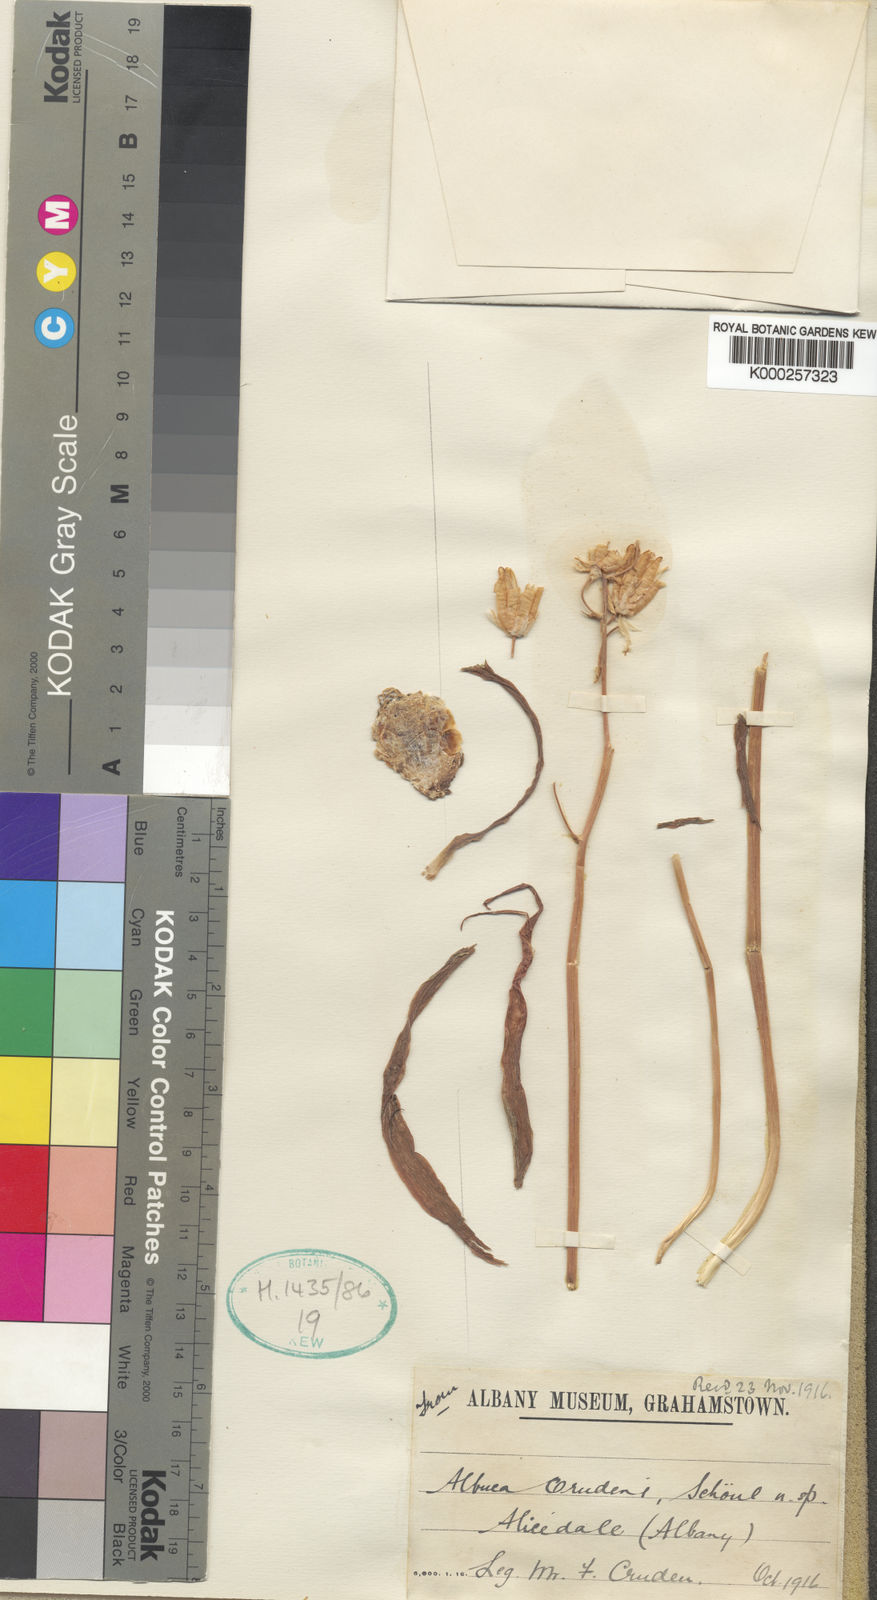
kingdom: Plantae
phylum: Tracheophyta
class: Liliopsida
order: Asparagales
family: Asparagaceae
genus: Albuca
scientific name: Albuca crudenii
